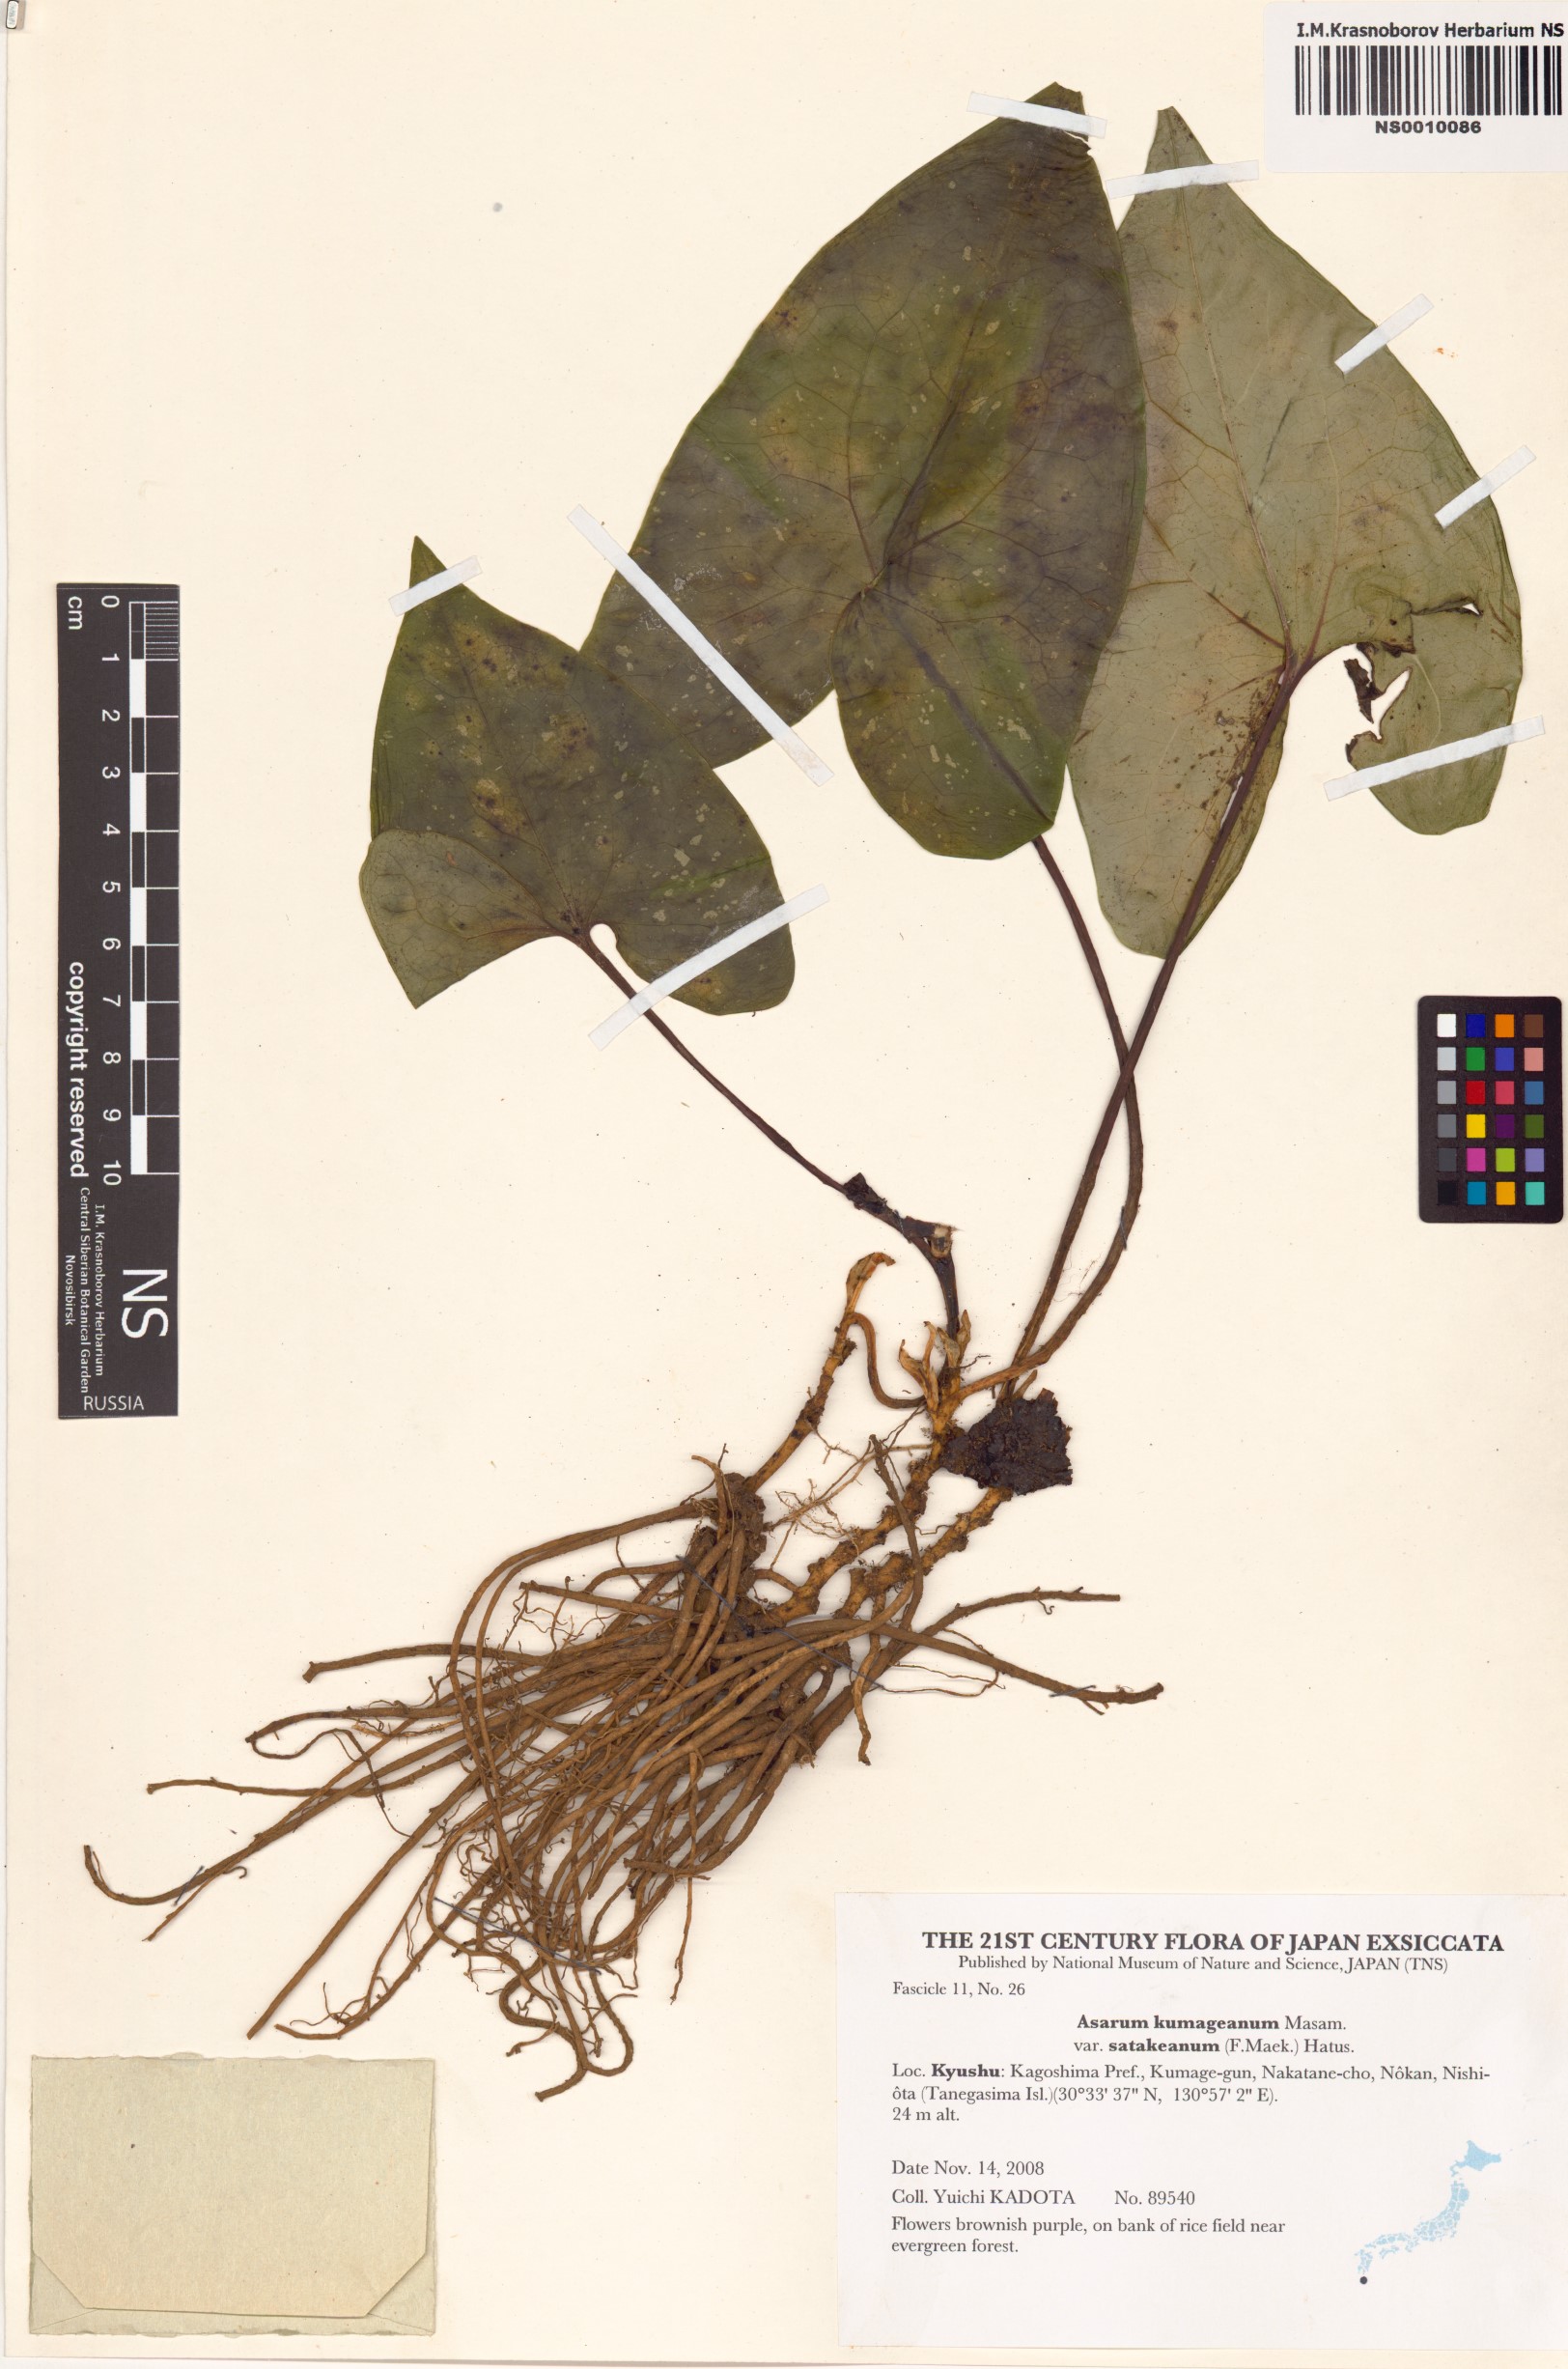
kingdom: Plantae
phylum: Tracheophyta
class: Magnoliopsida
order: Piperales
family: Aristolochiaceae
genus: Asarum
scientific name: Asarum kumageanum
